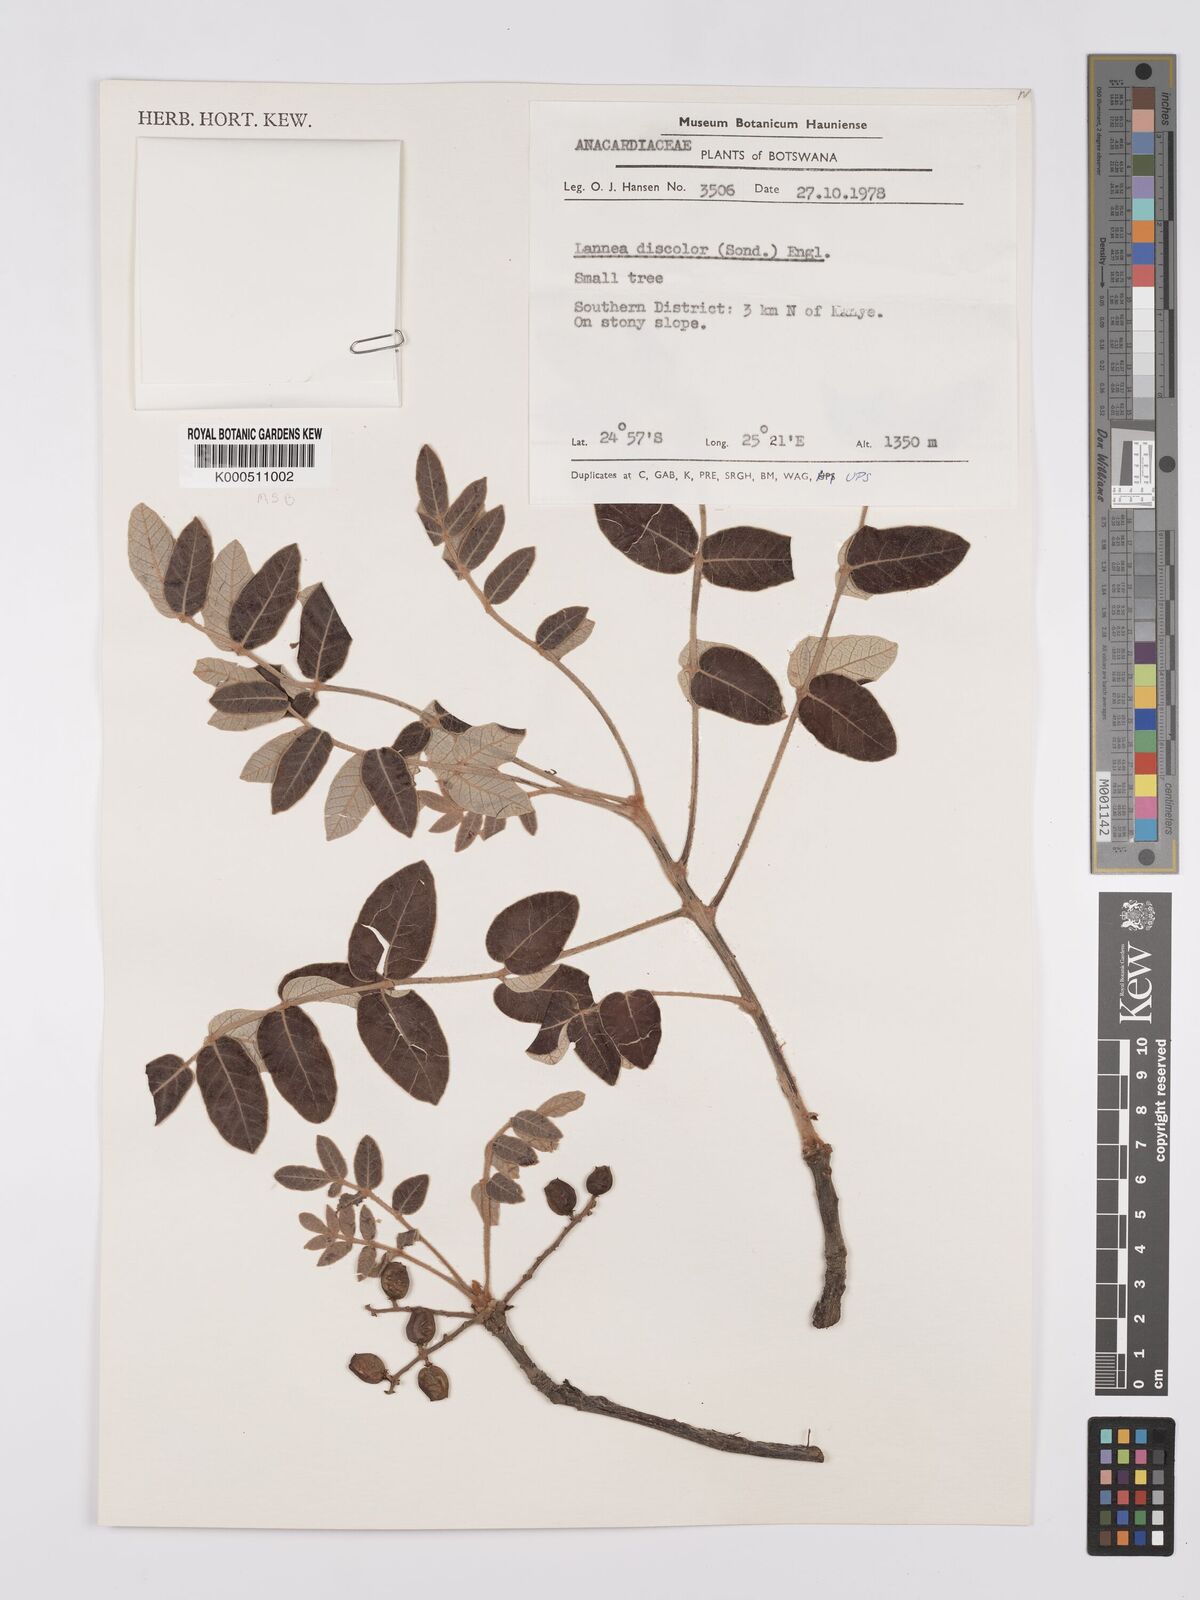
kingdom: Plantae
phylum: Tracheophyta
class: Magnoliopsida
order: Sapindales
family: Anacardiaceae
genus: Lannea
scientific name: Lannea discolor
